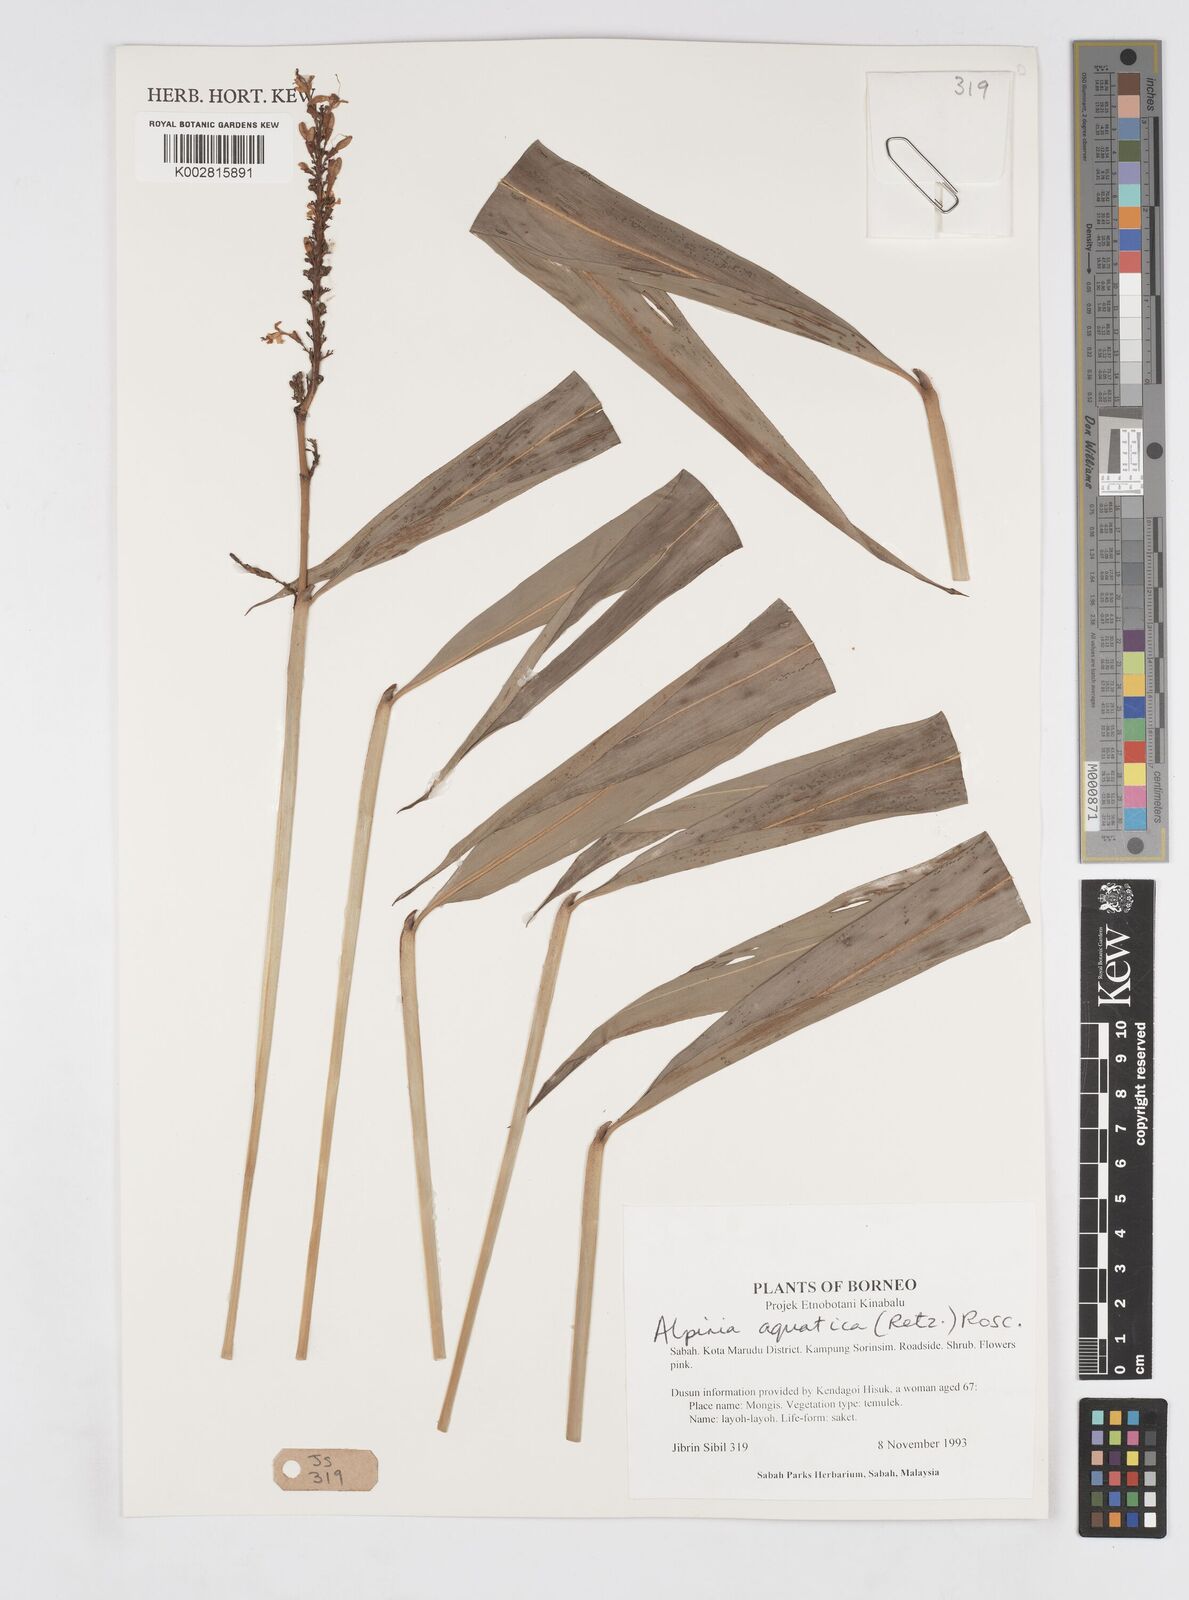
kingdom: Plantae
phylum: Tracheophyta
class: Liliopsida
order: Zingiberales
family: Zingiberaceae
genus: Alpinia
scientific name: Alpinia aquatica
